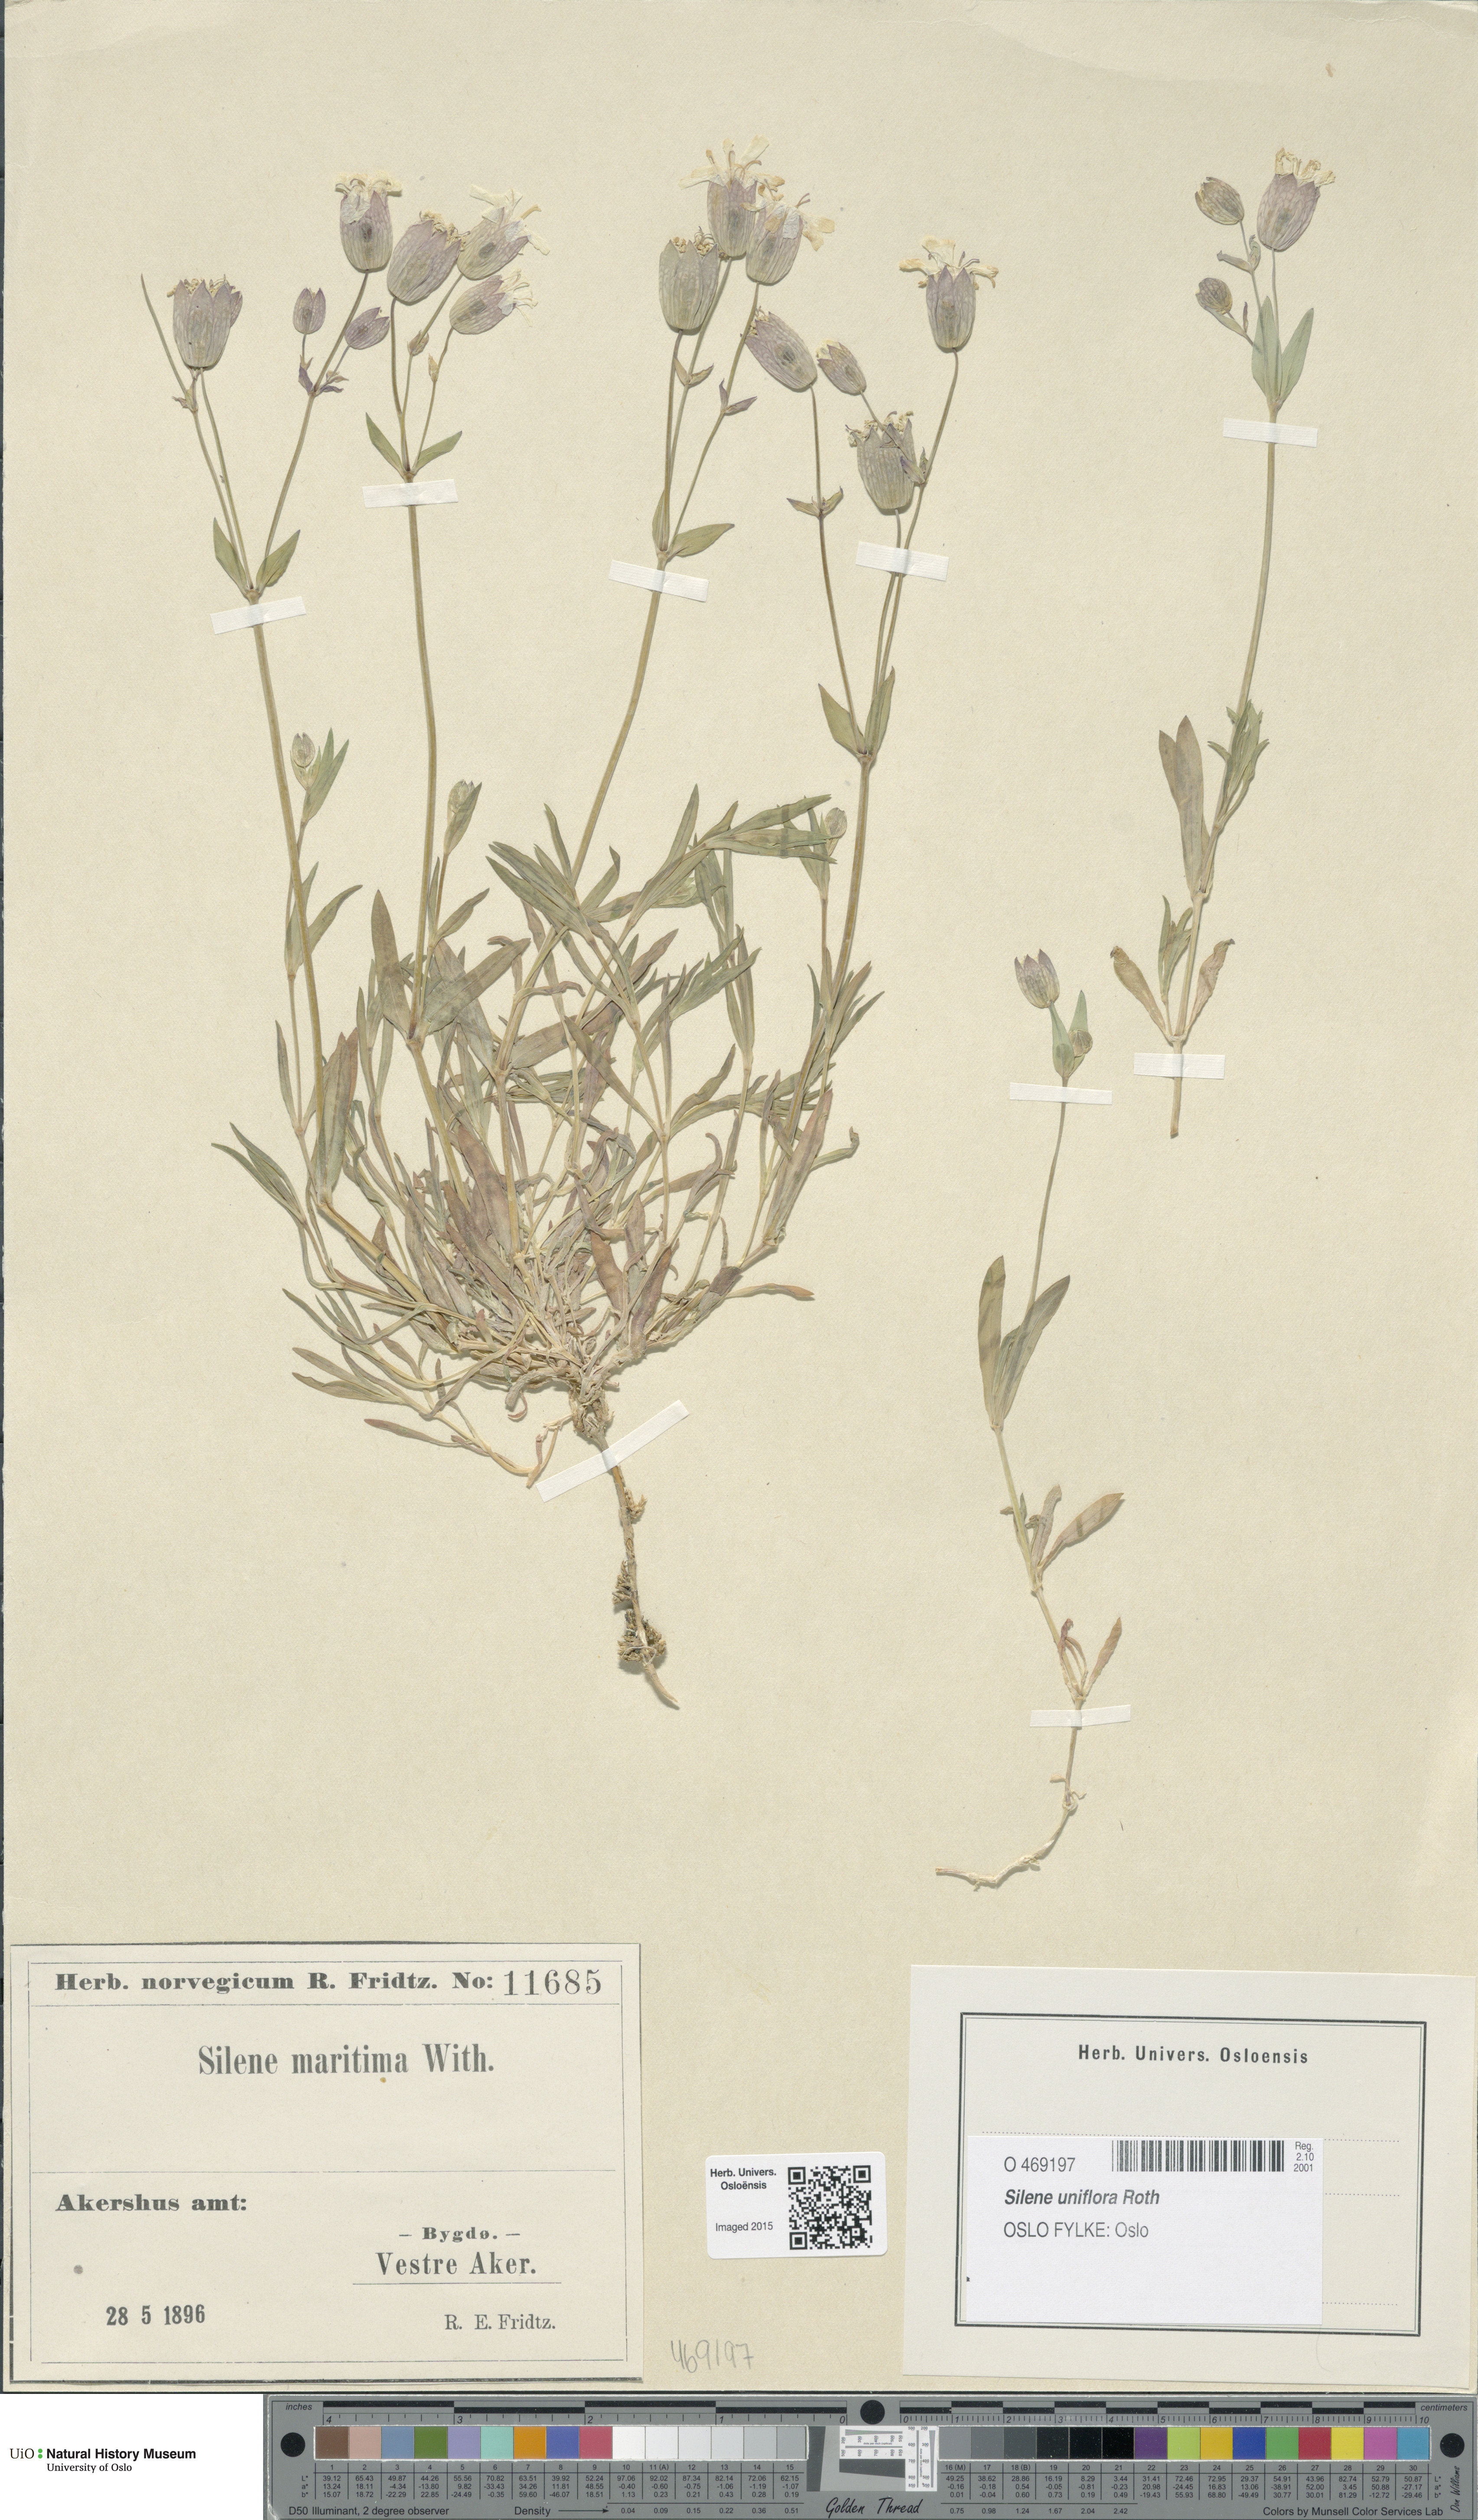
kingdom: Plantae
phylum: Tracheophyta
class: Magnoliopsida
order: Caryophyllales
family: Caryophyllaceae
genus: Silene
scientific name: Silene uniflora
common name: Sea campion
